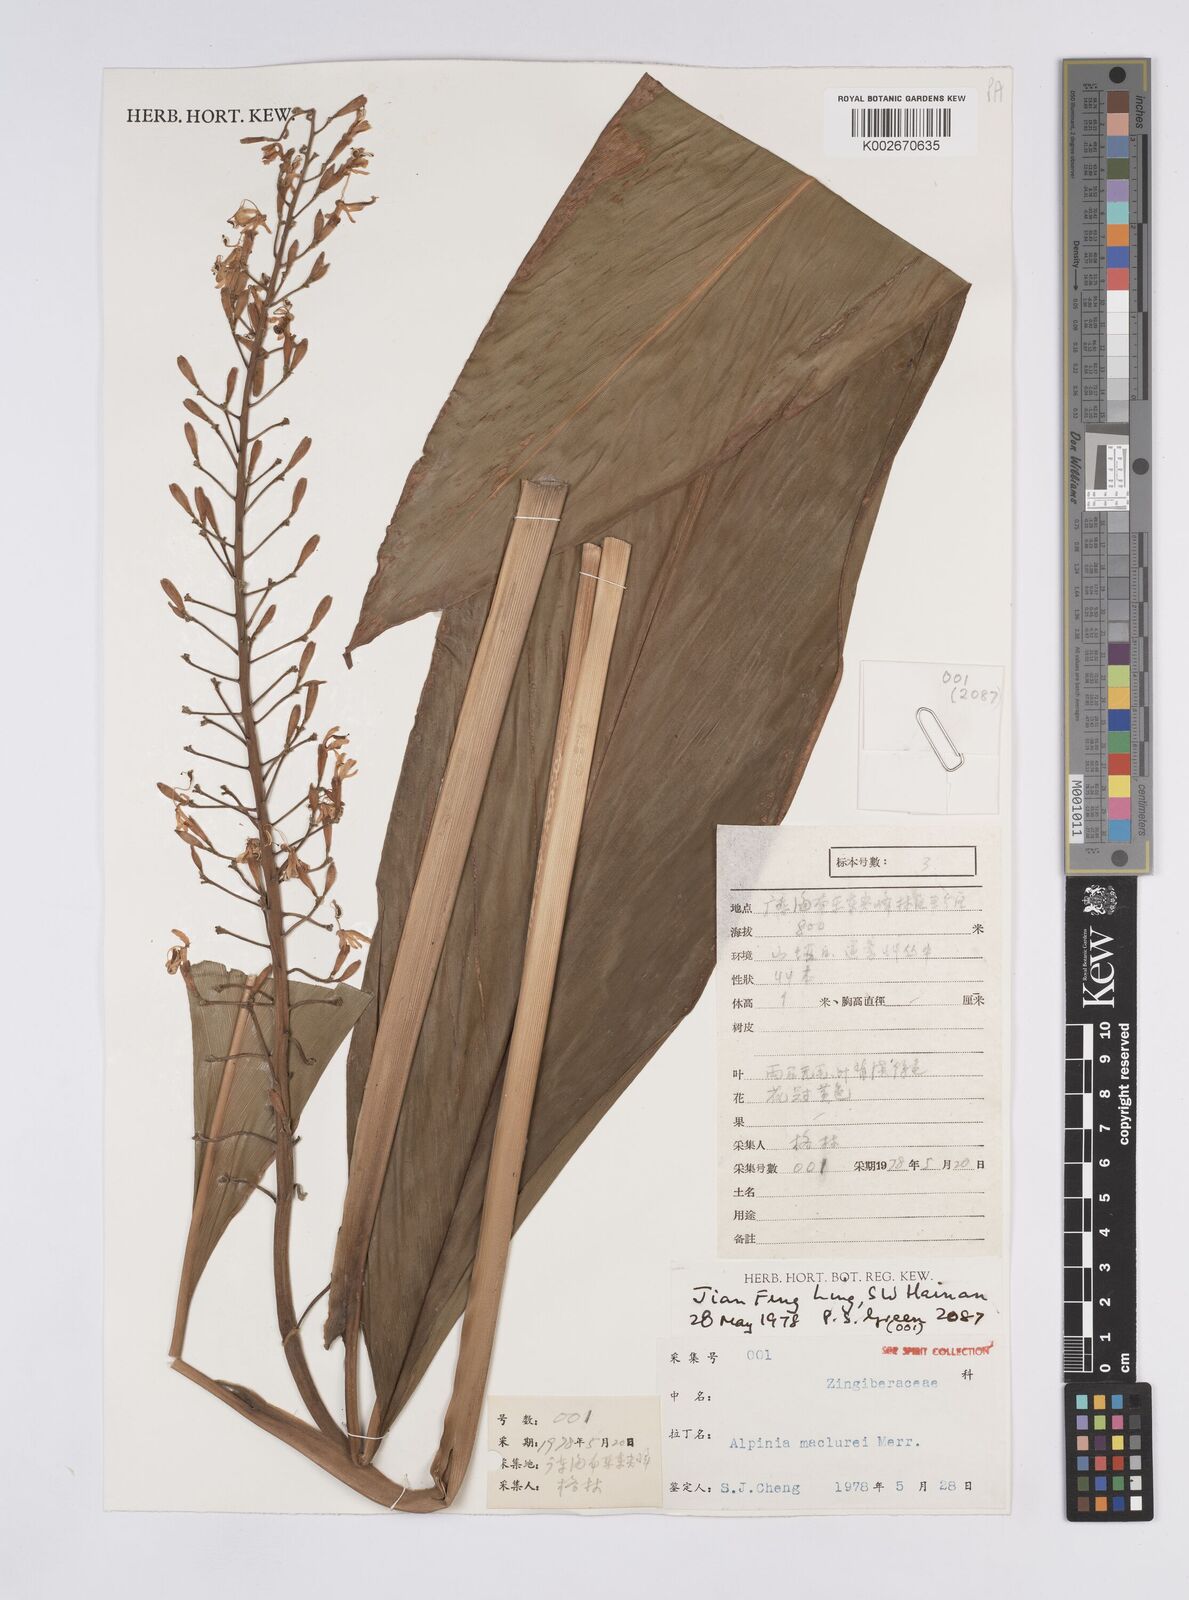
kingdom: Plantae
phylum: Tracheophyta
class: Liliopsida
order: Zingiberales
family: Zingiberaceae
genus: Alpinia
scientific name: Alpinia maclurei
